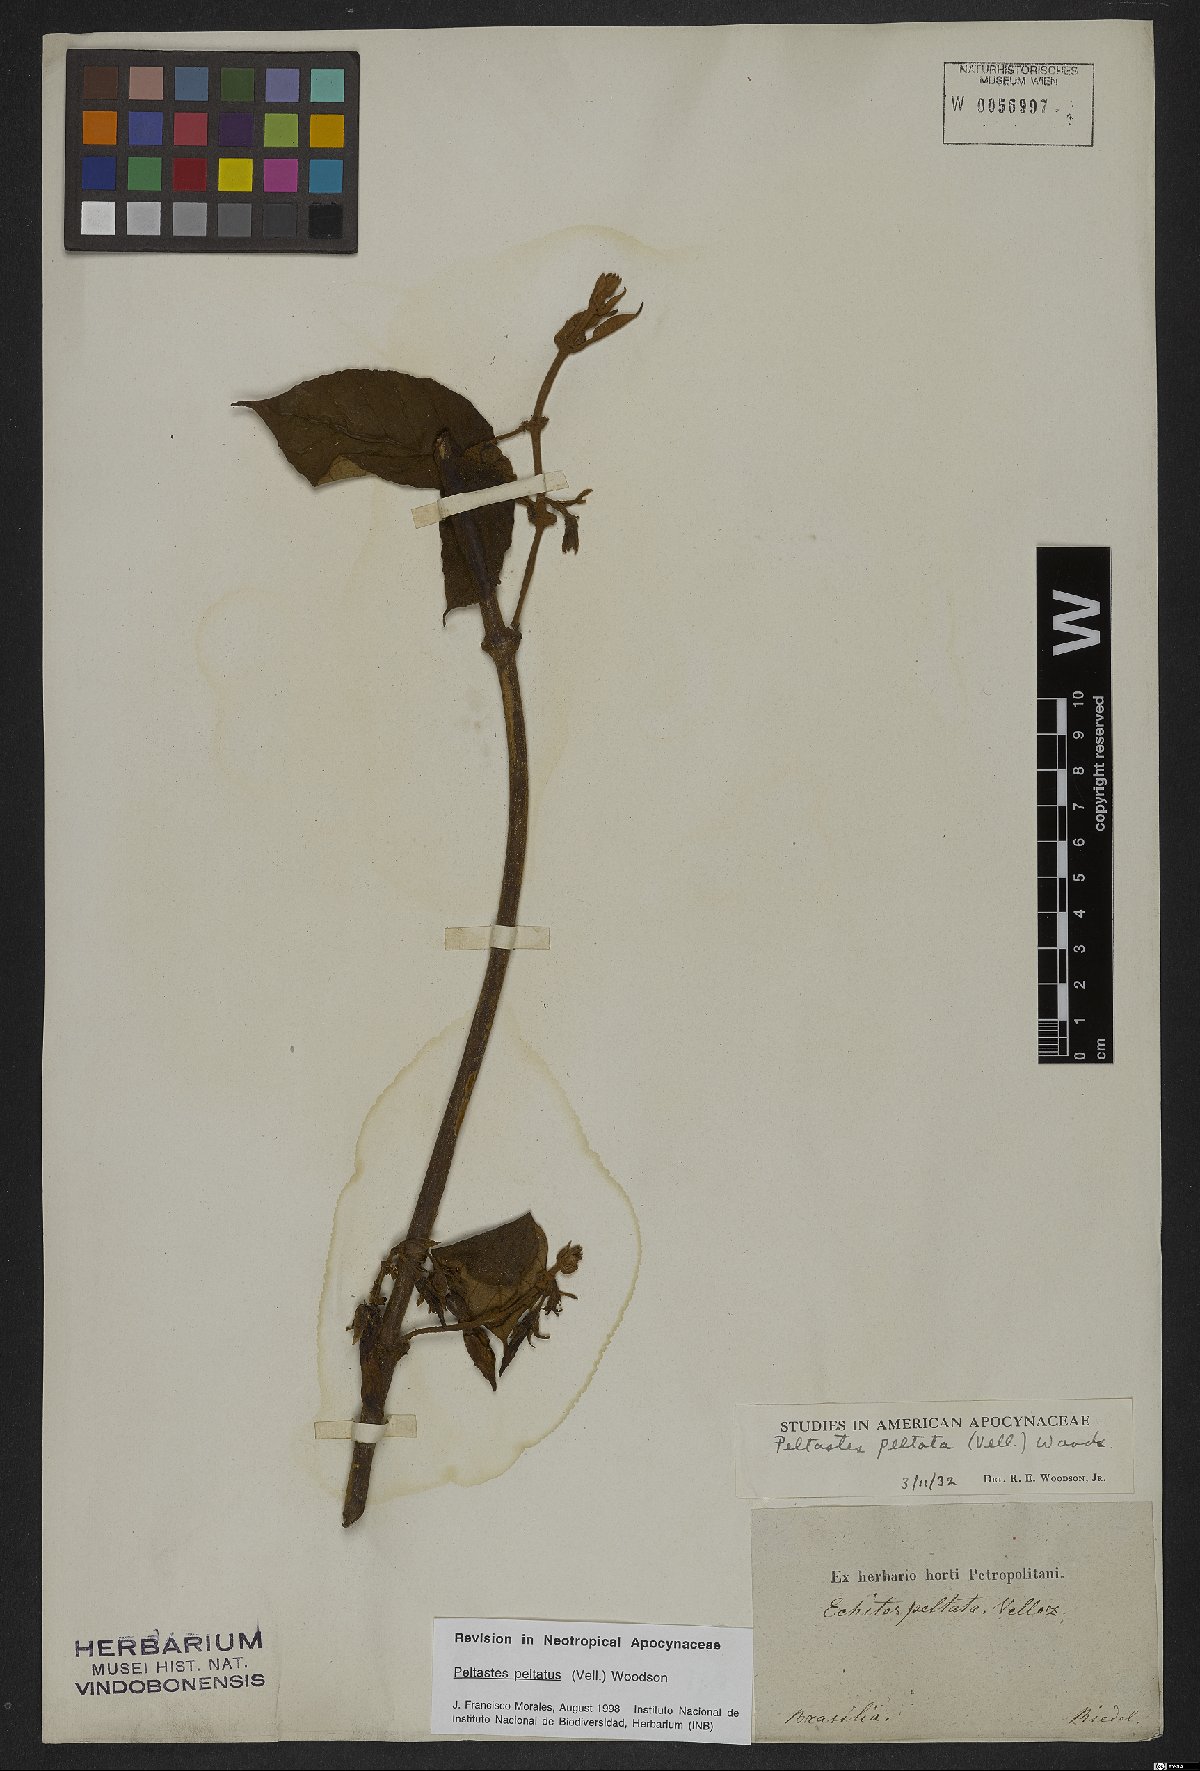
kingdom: Plantae
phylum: Tracheophyta
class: Magnoliopsida
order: Gentianales
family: Apocynaceae
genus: Macropharynx
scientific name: Macropharynx peltata
